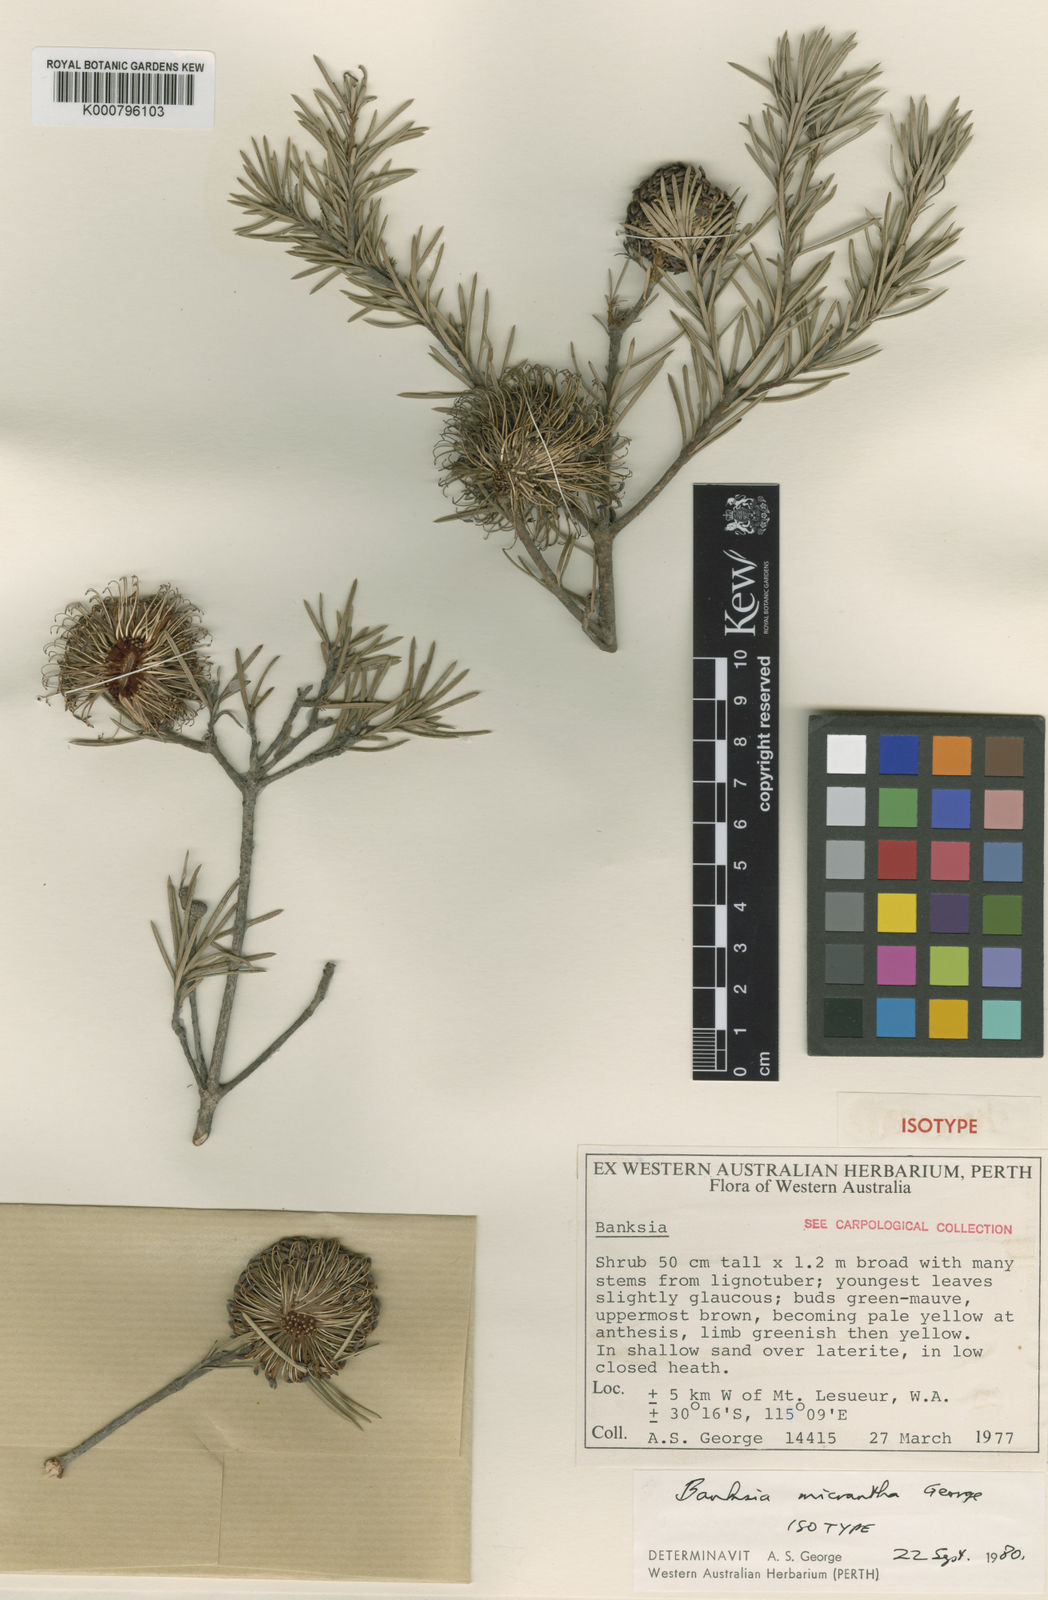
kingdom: Plantae
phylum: Tracheophyta
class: Magnoliopsida
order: Proteales
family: Proteaceae
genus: Banksia
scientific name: Banksia micrantha
